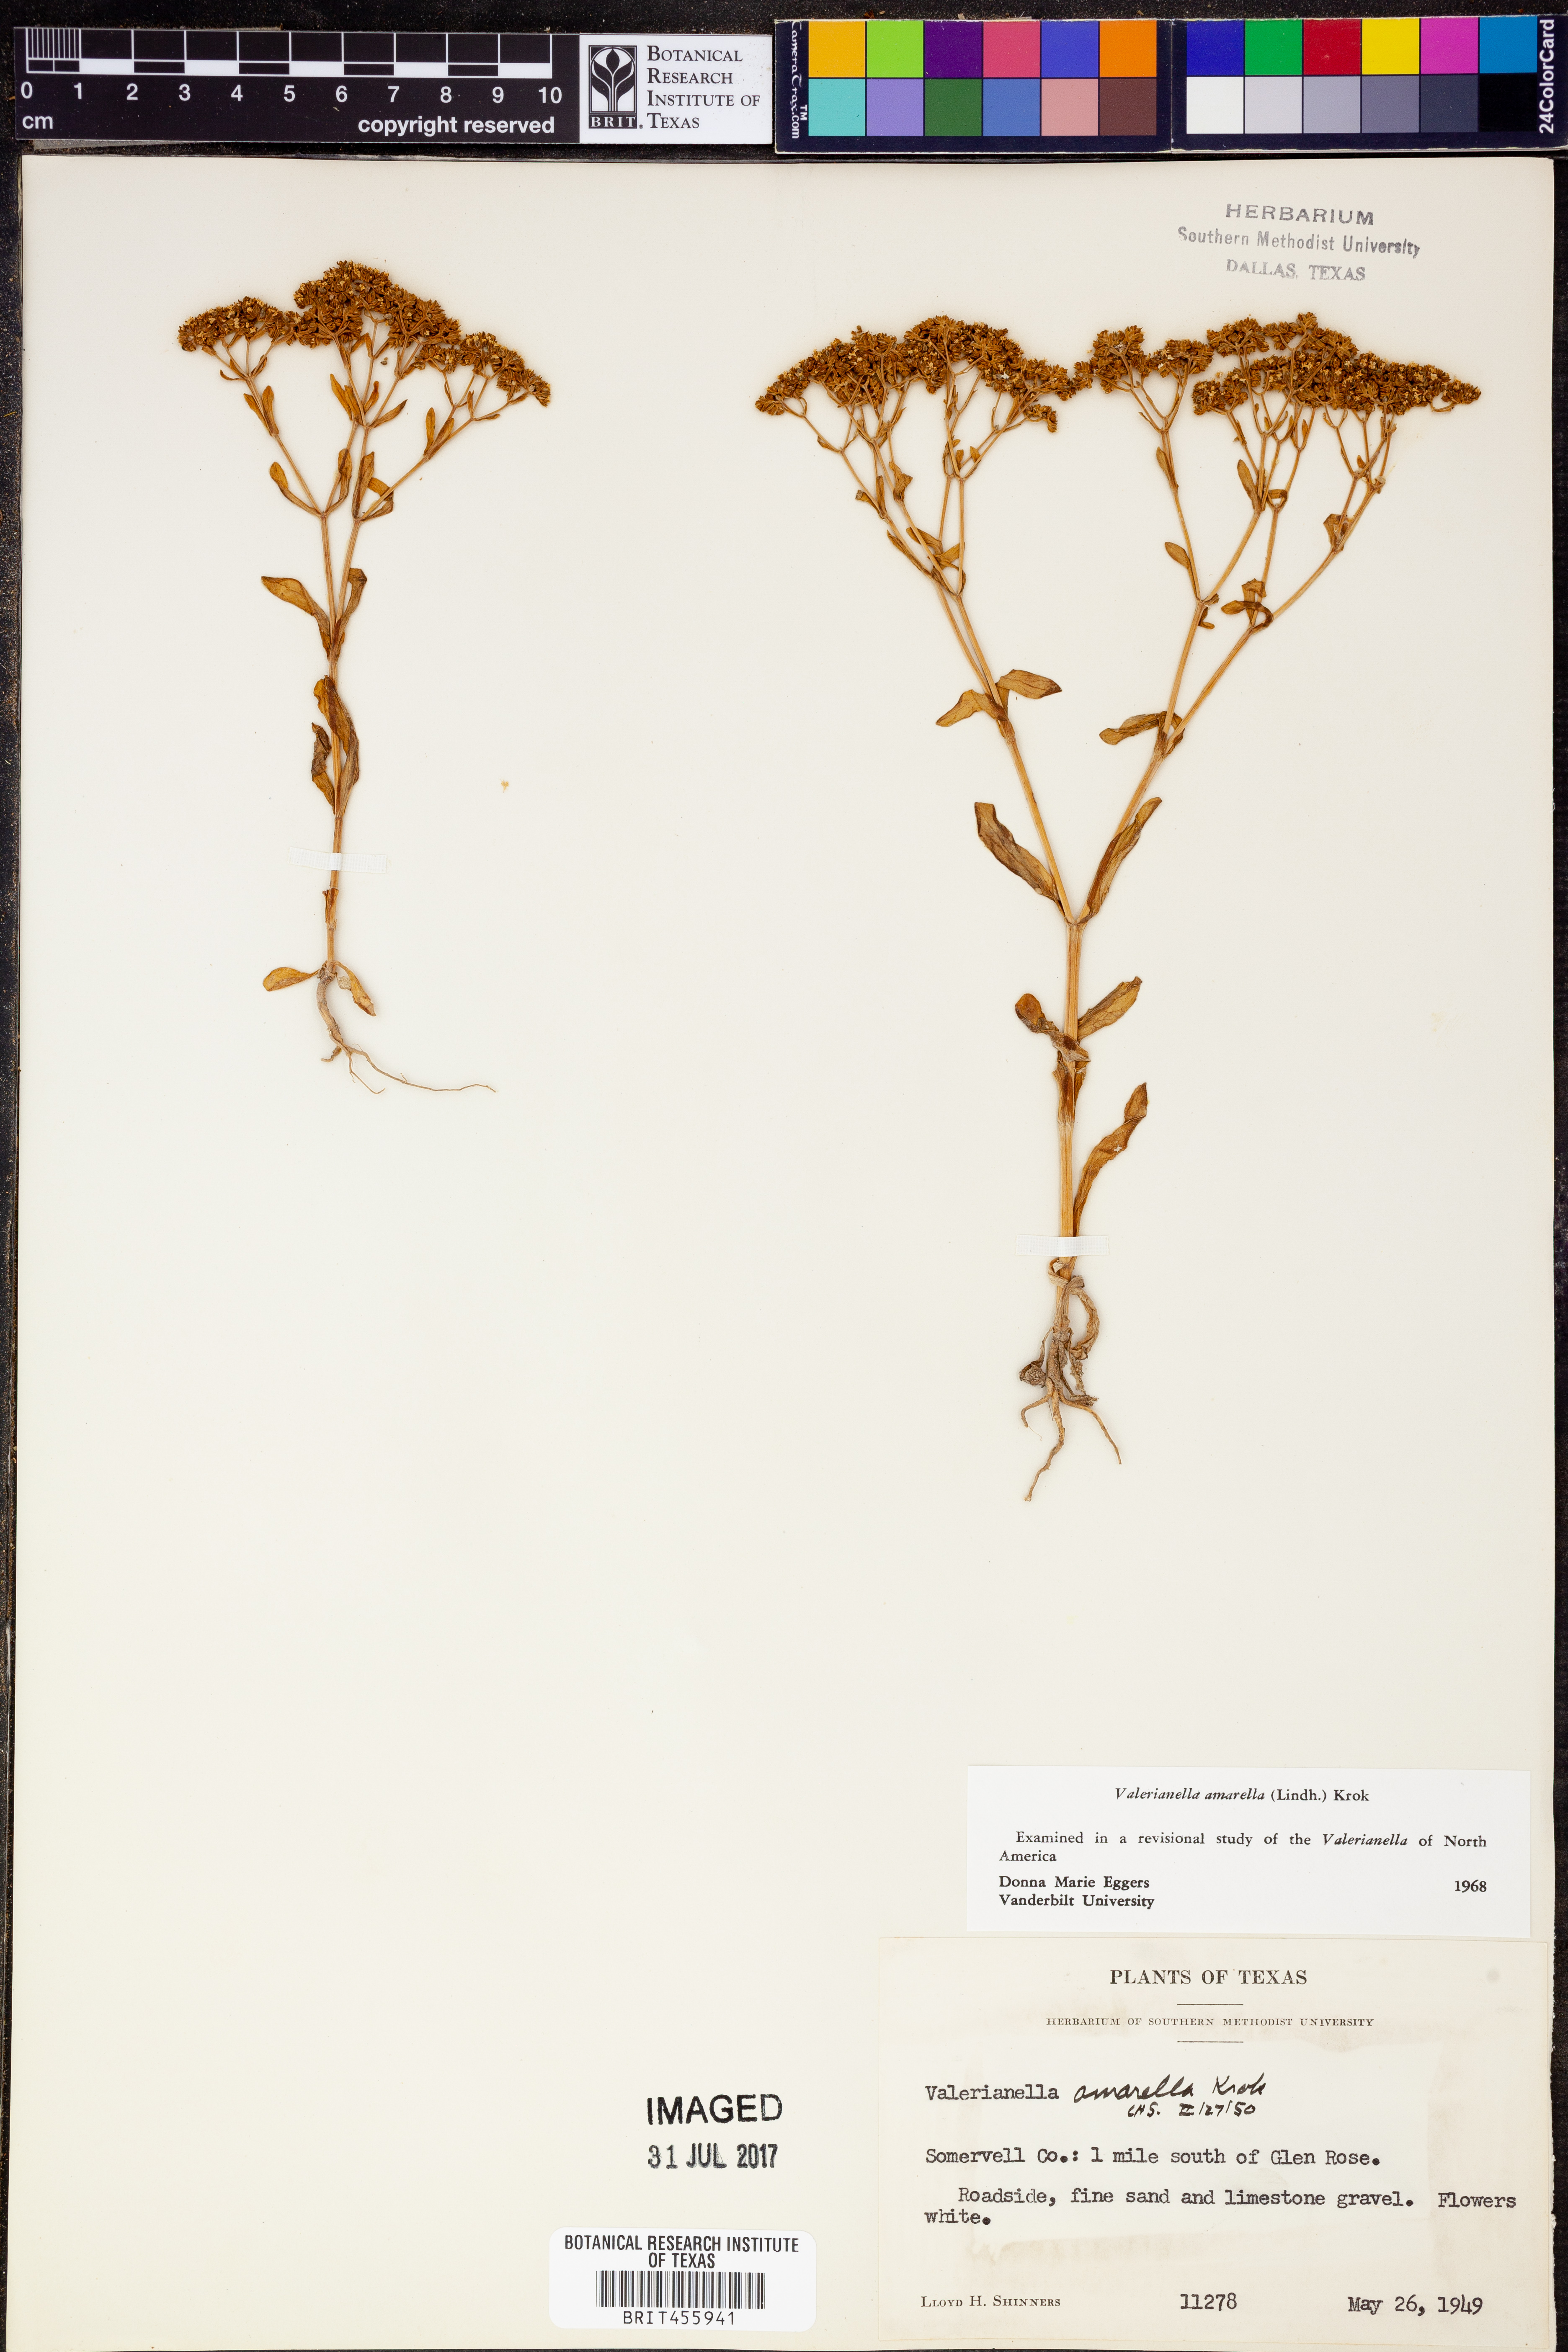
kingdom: Plantae
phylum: Tracheophyta
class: Magnoliopsida
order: Dipsacales
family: Caprifoliaceae
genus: Valerianella
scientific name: Valerianella amarella
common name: Hariy cornsalad
